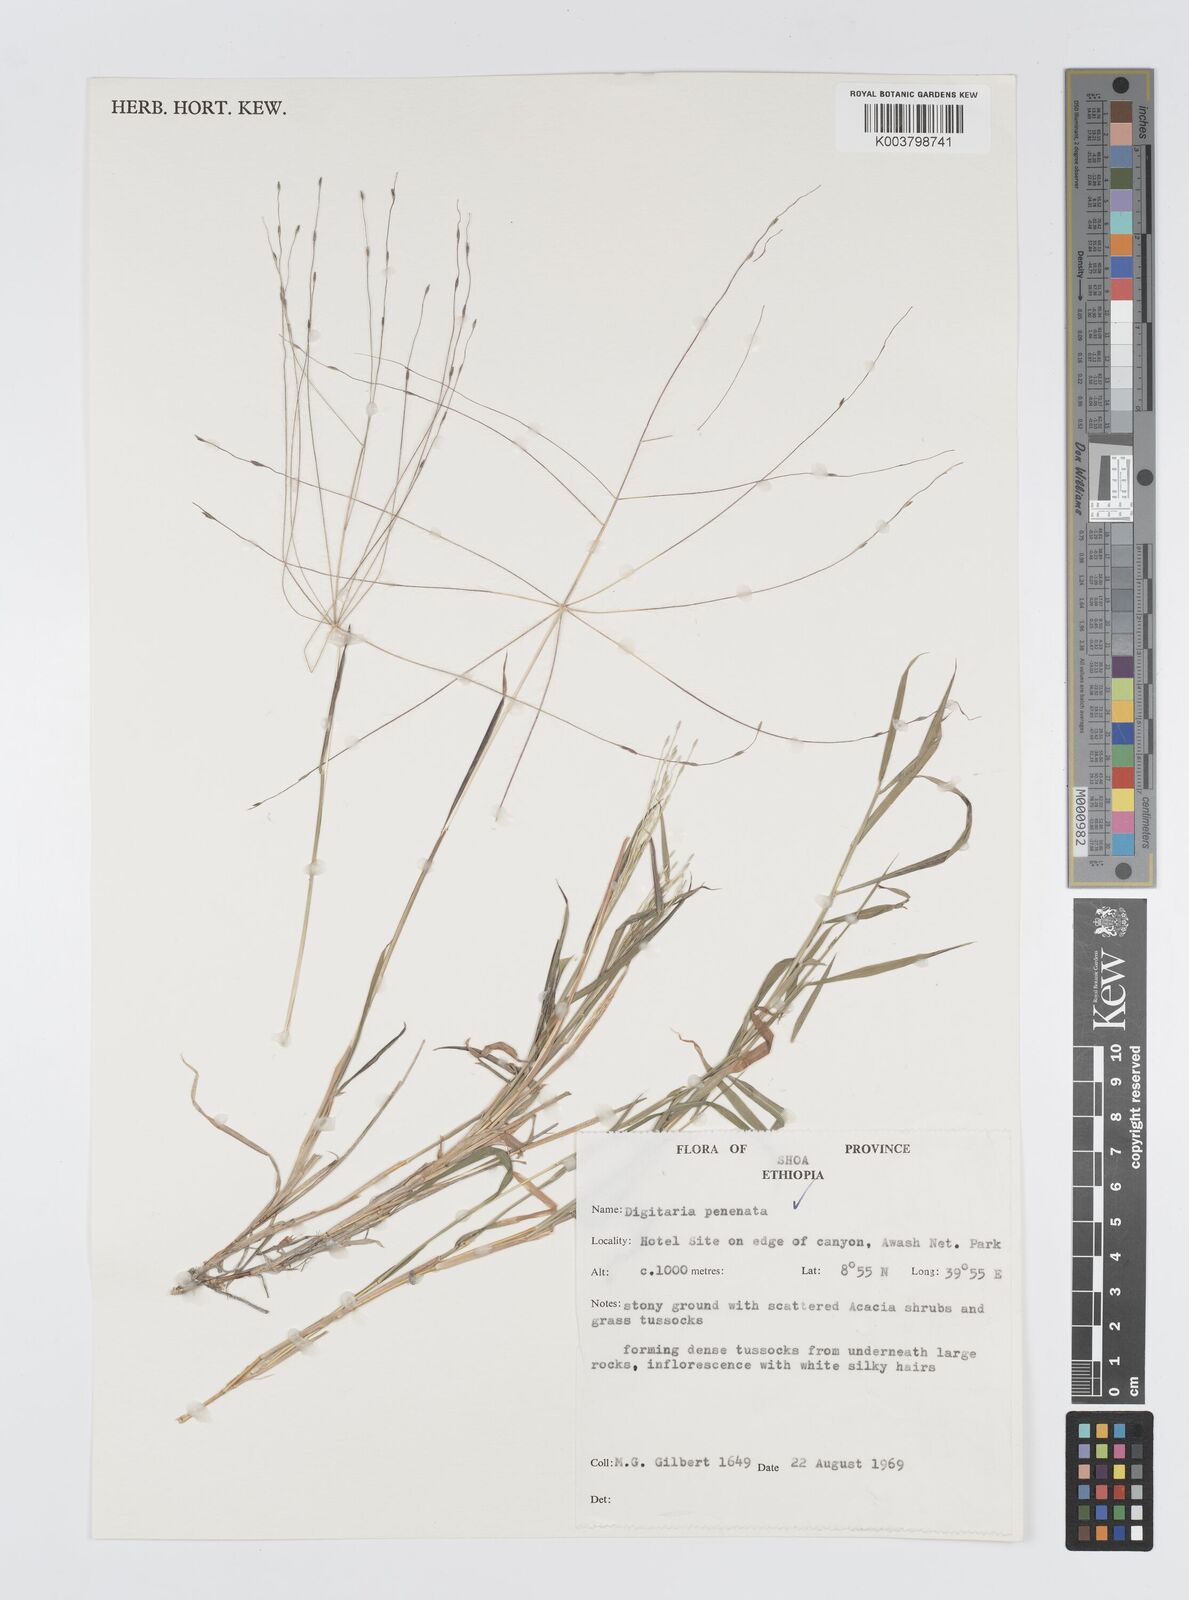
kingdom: Plantae
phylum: Tracheophyta
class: Liliopsida
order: Poales
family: Poaceae
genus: Digitaria
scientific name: Digitaria pennata
